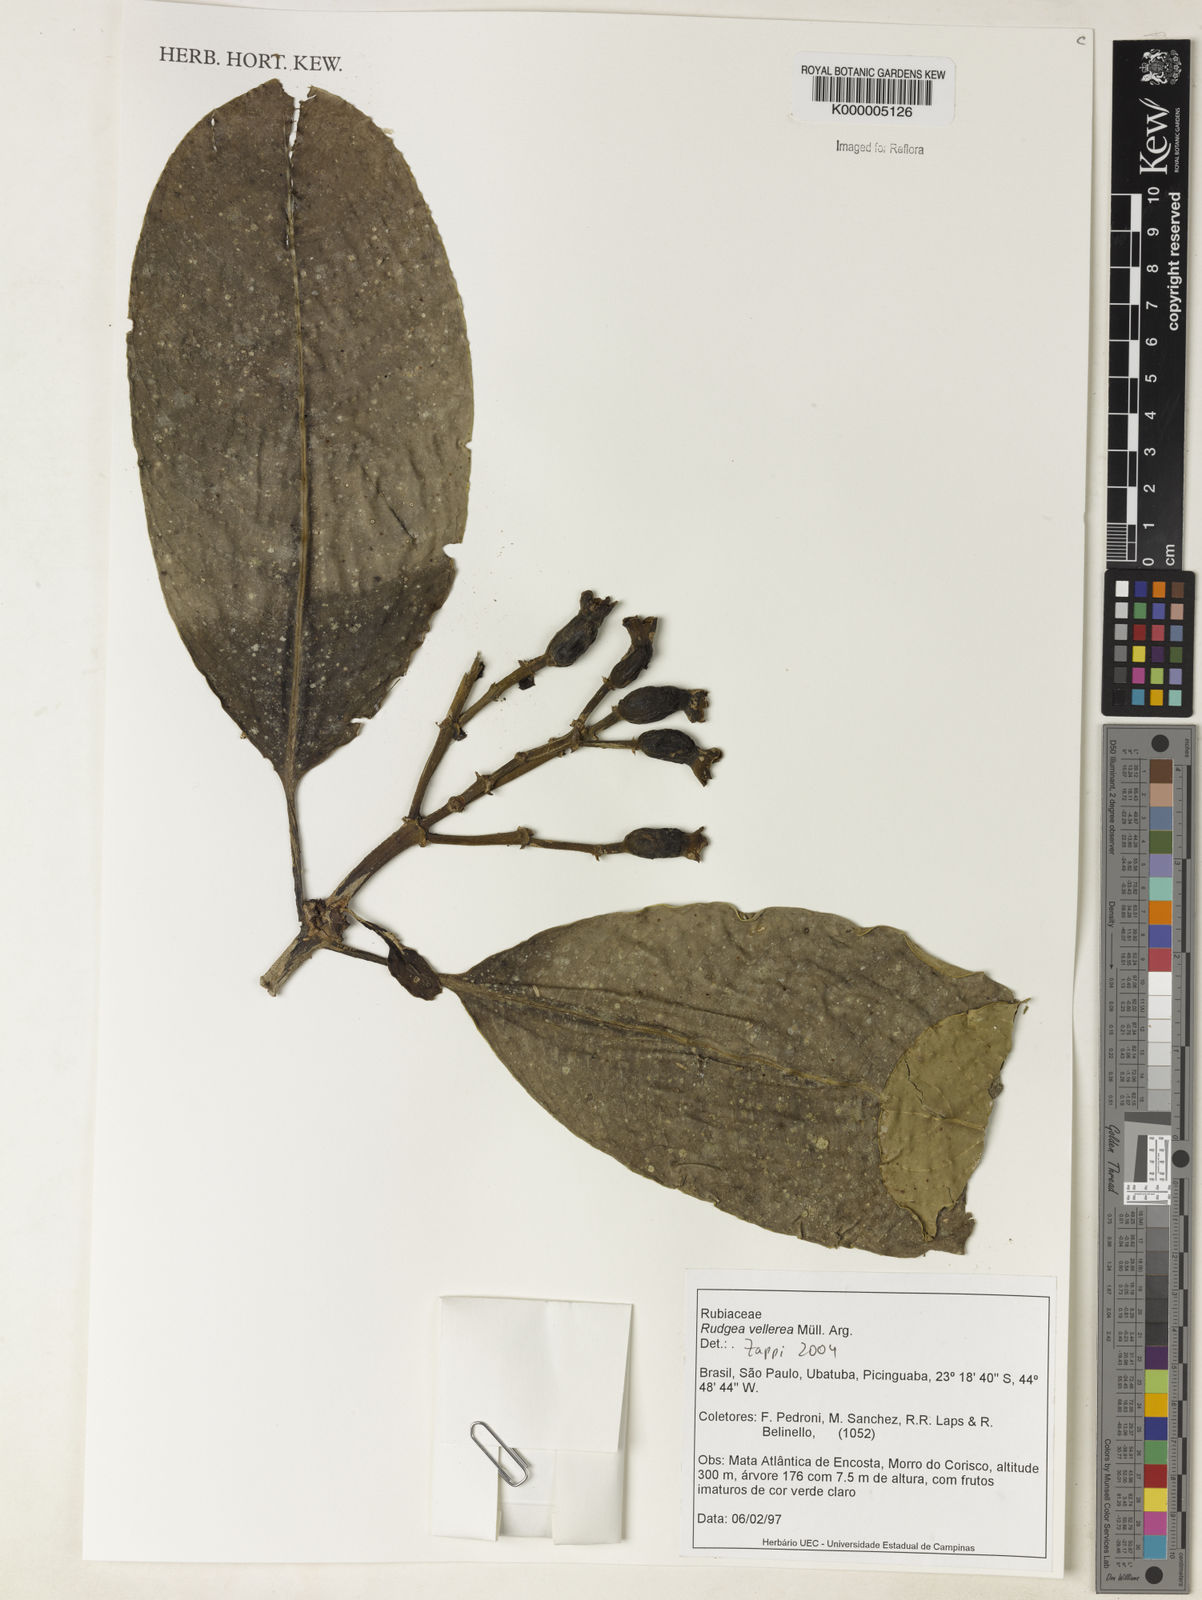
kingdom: Plantae
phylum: Tracheophyta
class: Magnoliopsida
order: Gentianales
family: Rubiaceae
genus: Rudgea
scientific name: Rudgea vellerea
